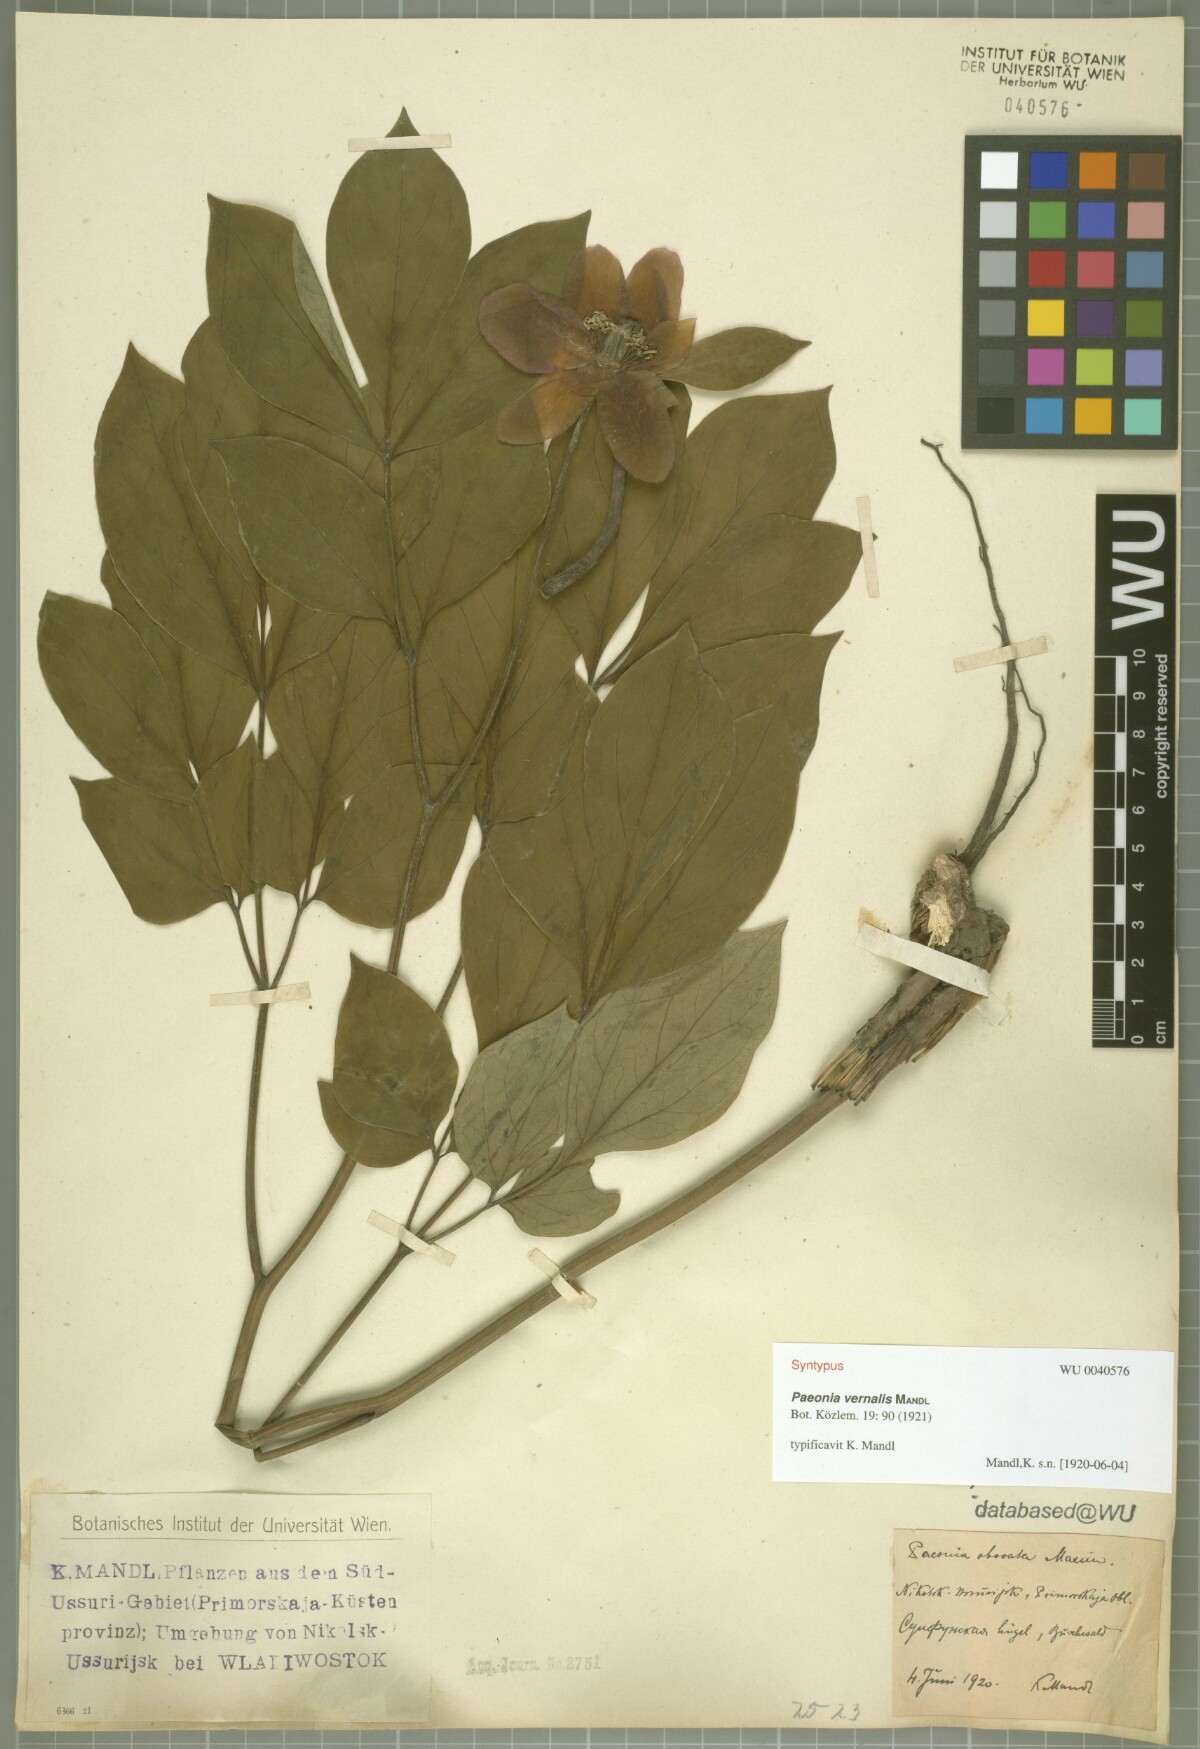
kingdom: Plantae
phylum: Tracheophyta
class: Magnoliopsida
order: Saxifragales
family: Paeoniaceae
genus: Paeonia
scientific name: Paeonia obovata
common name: Chinese peony
